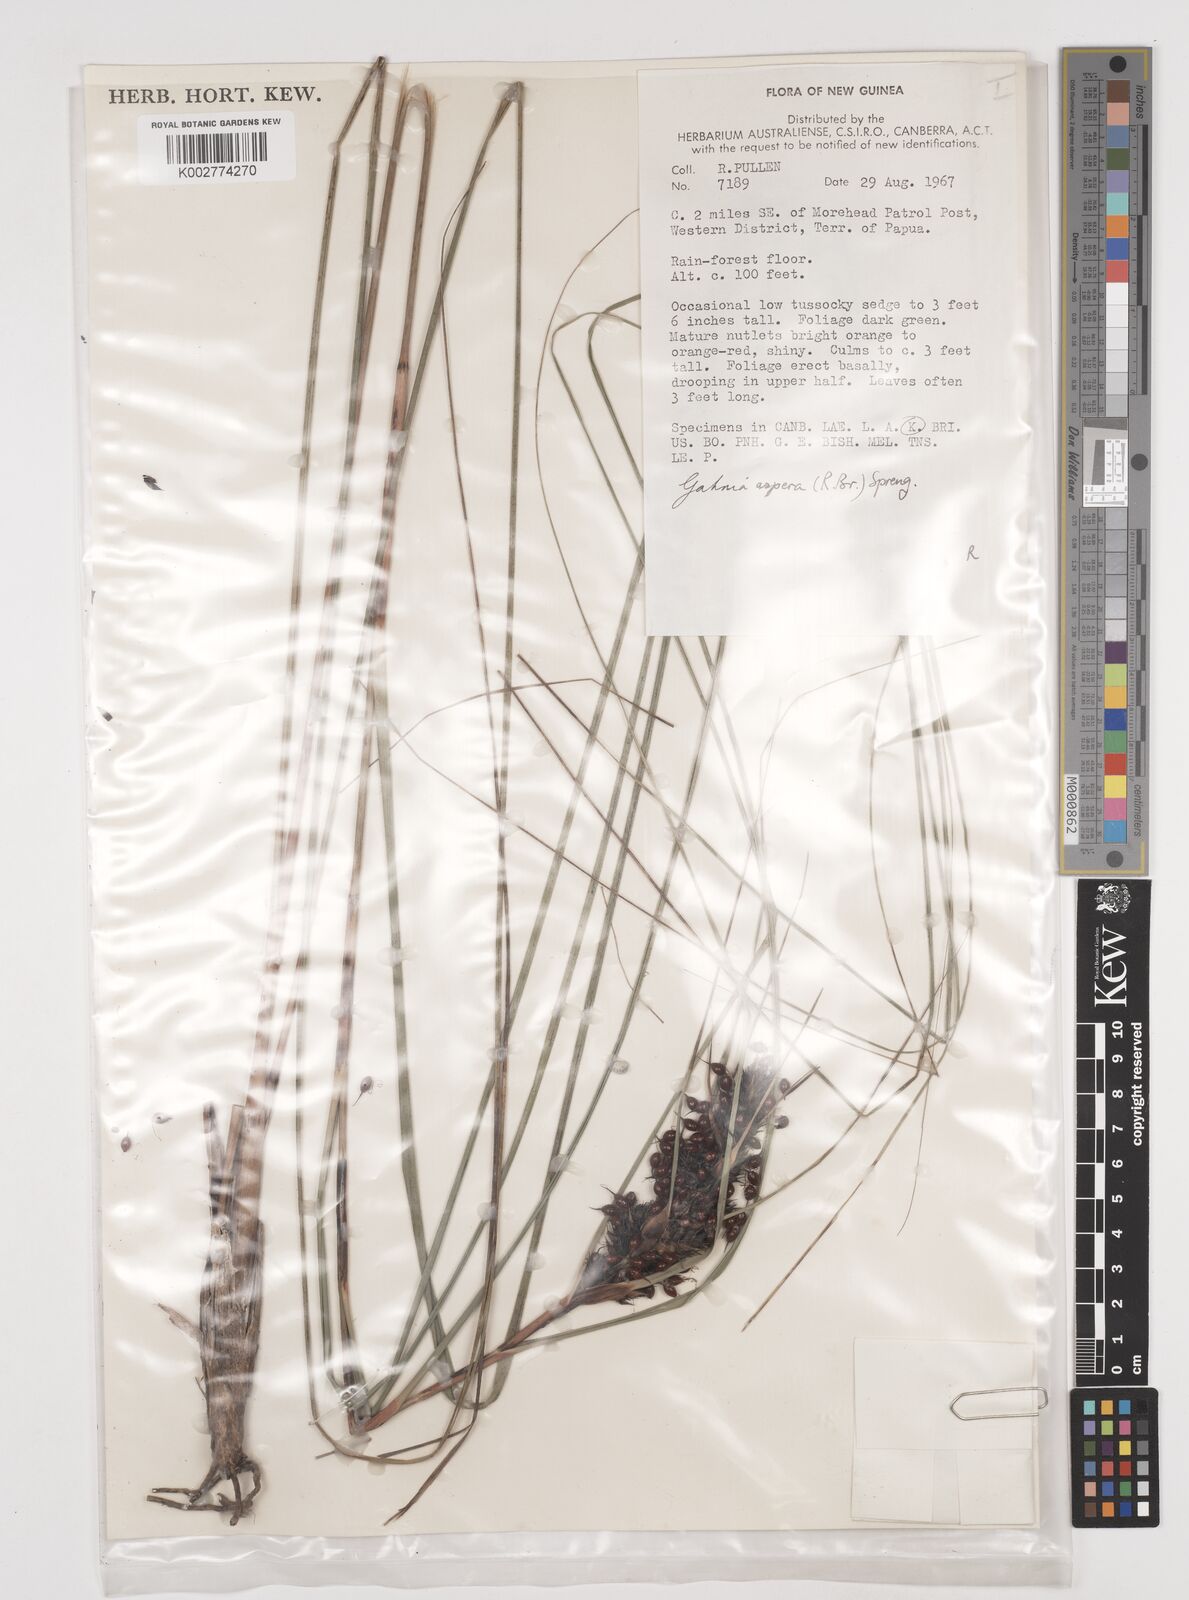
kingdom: Plantae
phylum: Tracheophyta
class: Liliopsida
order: Poales
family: Cyperaceae
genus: Gahnia
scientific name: Gahnia aspera
